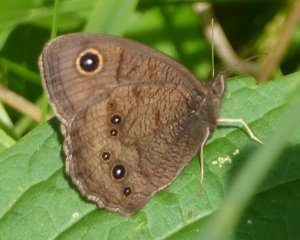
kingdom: Animalia
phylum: Arthropoda
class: Insecta
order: Lepidoptera
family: Nymphalidae
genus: Cercyonis
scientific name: Cercyonis pegala
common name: Common Wood-Nymph
